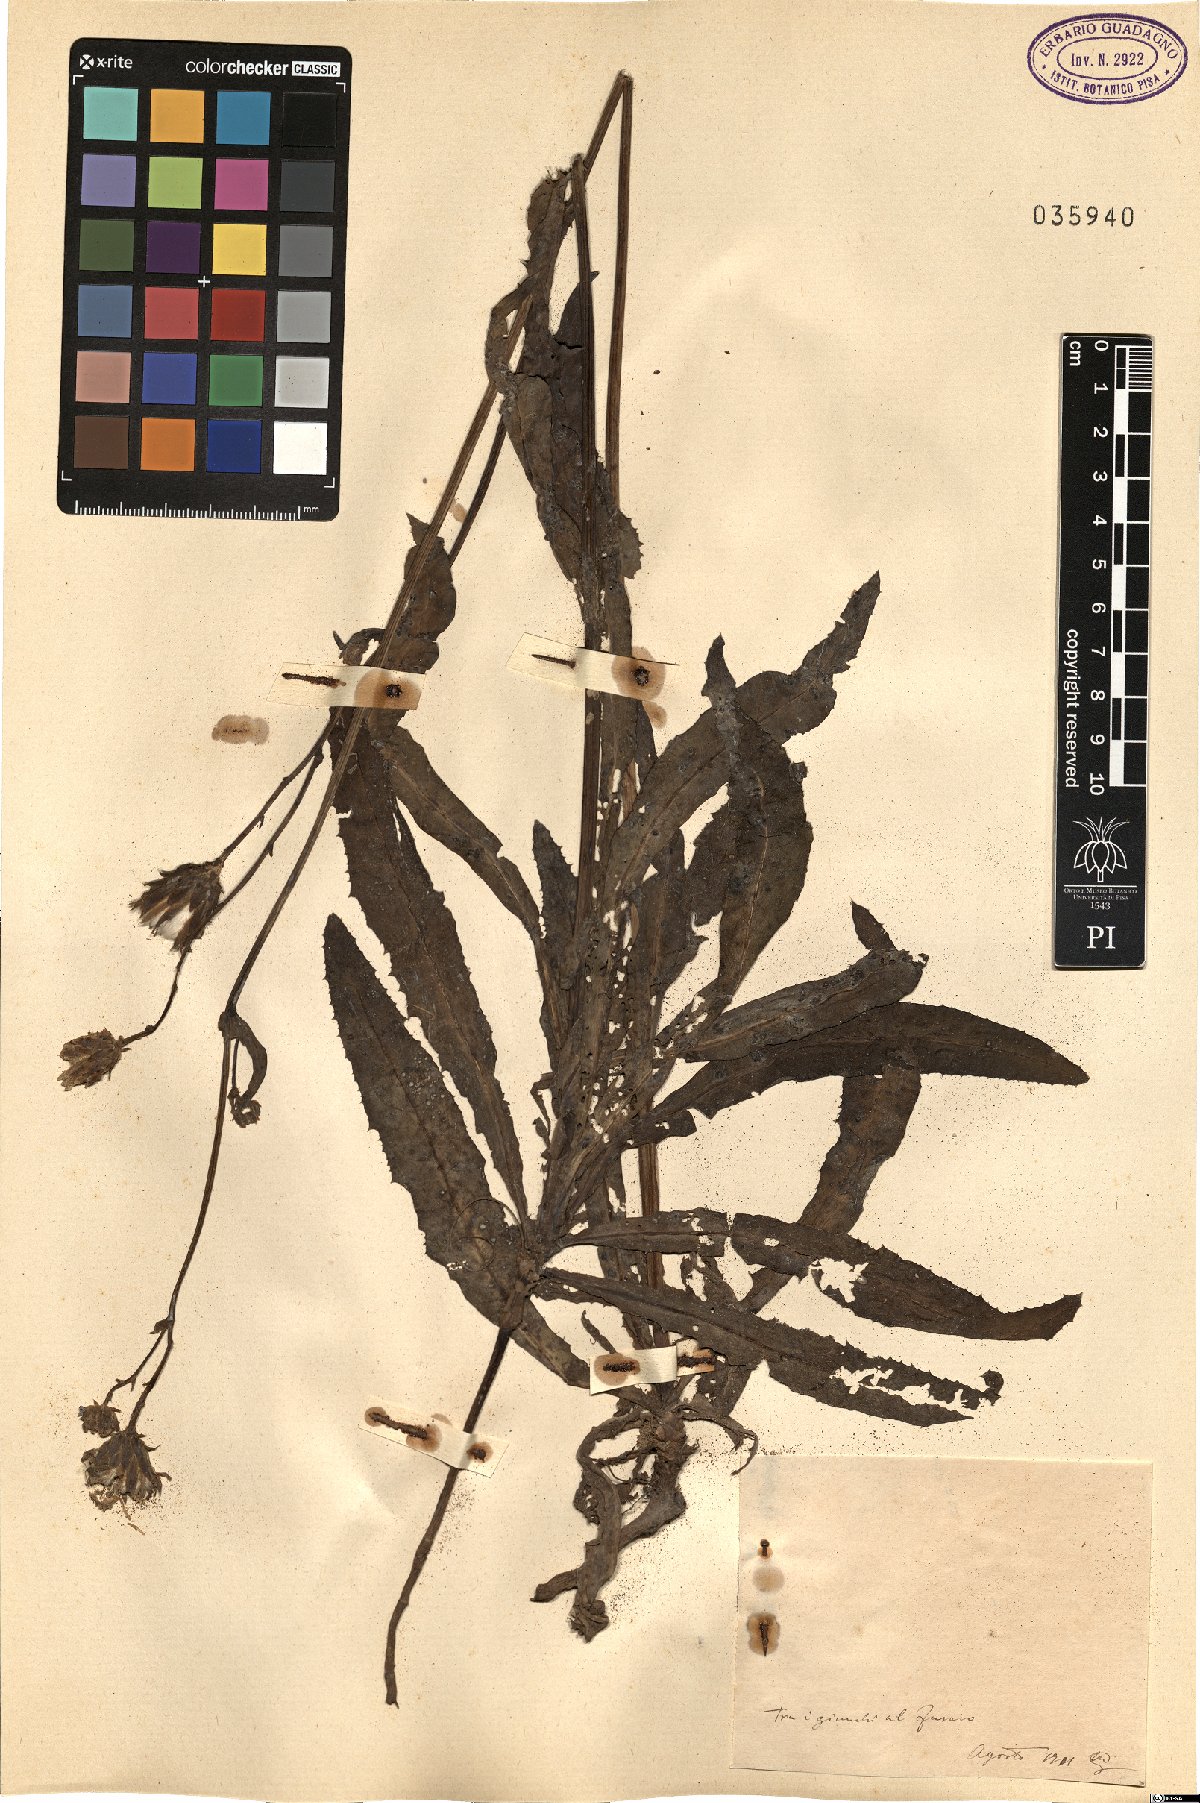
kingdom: Plantae
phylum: Tracheophyta
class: Magnoliopsida
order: Asterales
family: Asteraceae
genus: Sonchus
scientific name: Sonchus
